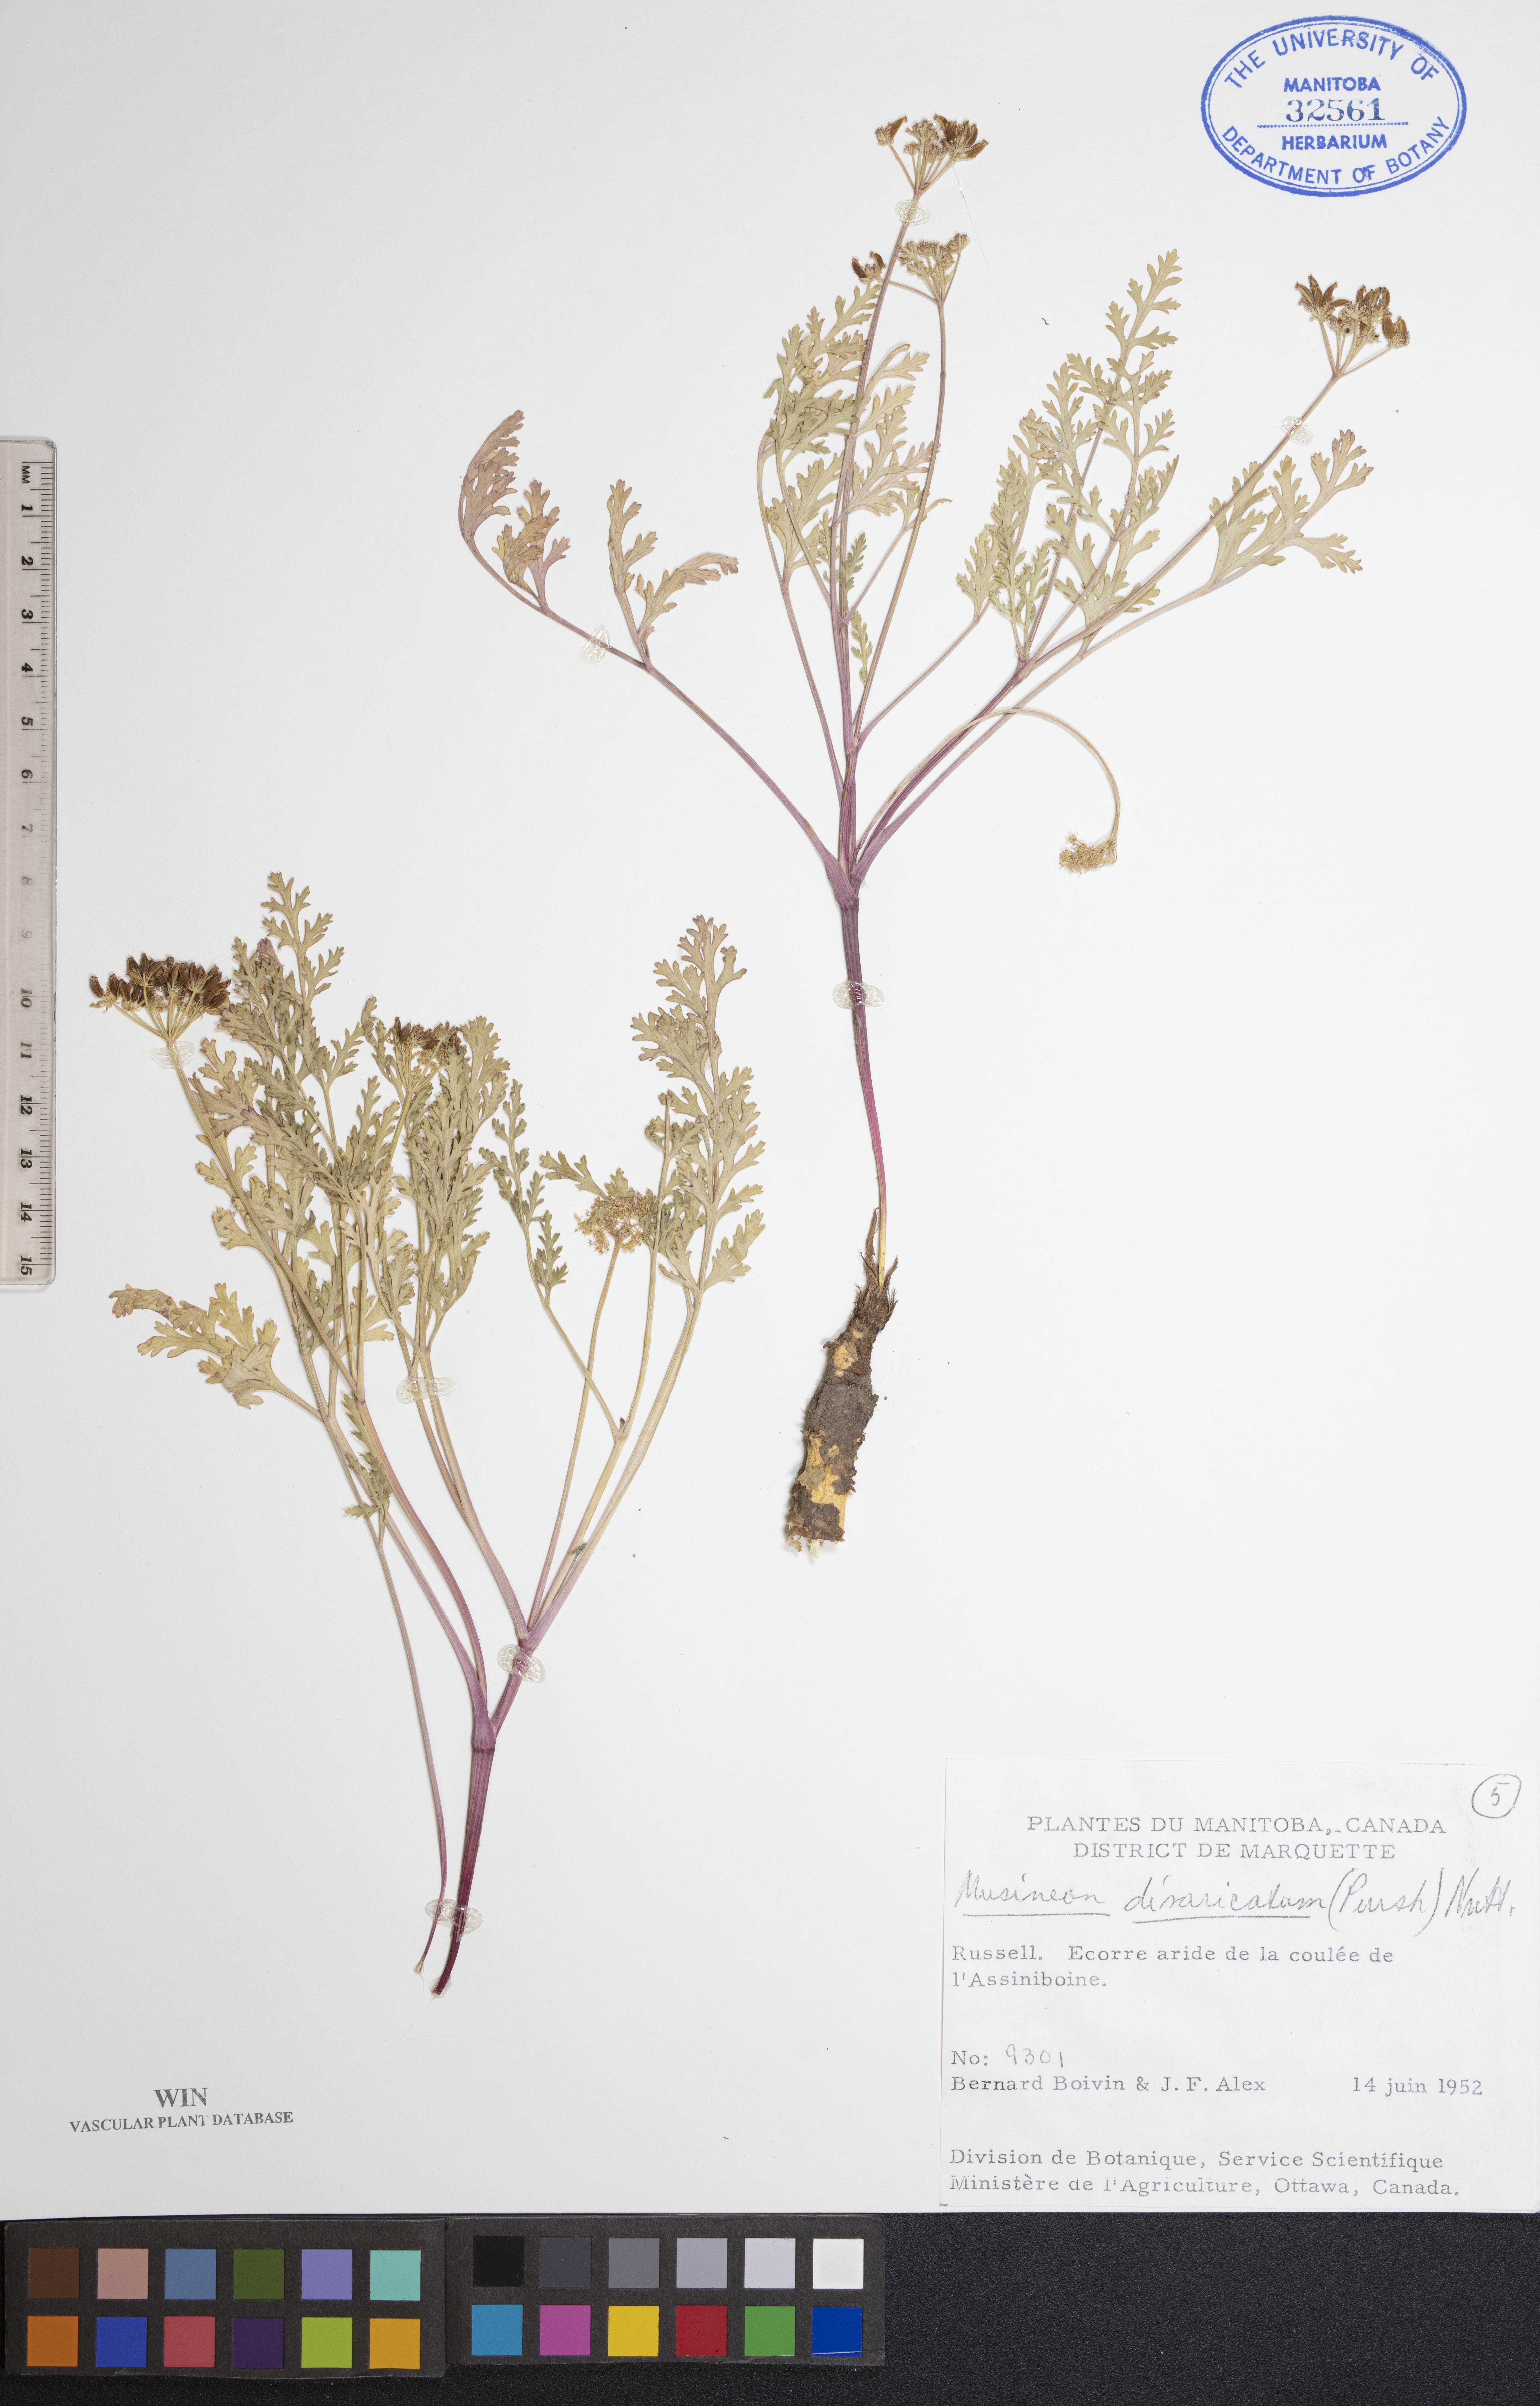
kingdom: Plantae
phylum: Tracheophyta
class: Magnoliopsida
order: Apiales
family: Apiaceae
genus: Musineon
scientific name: Musineon divaricatum
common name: Plains musineon
